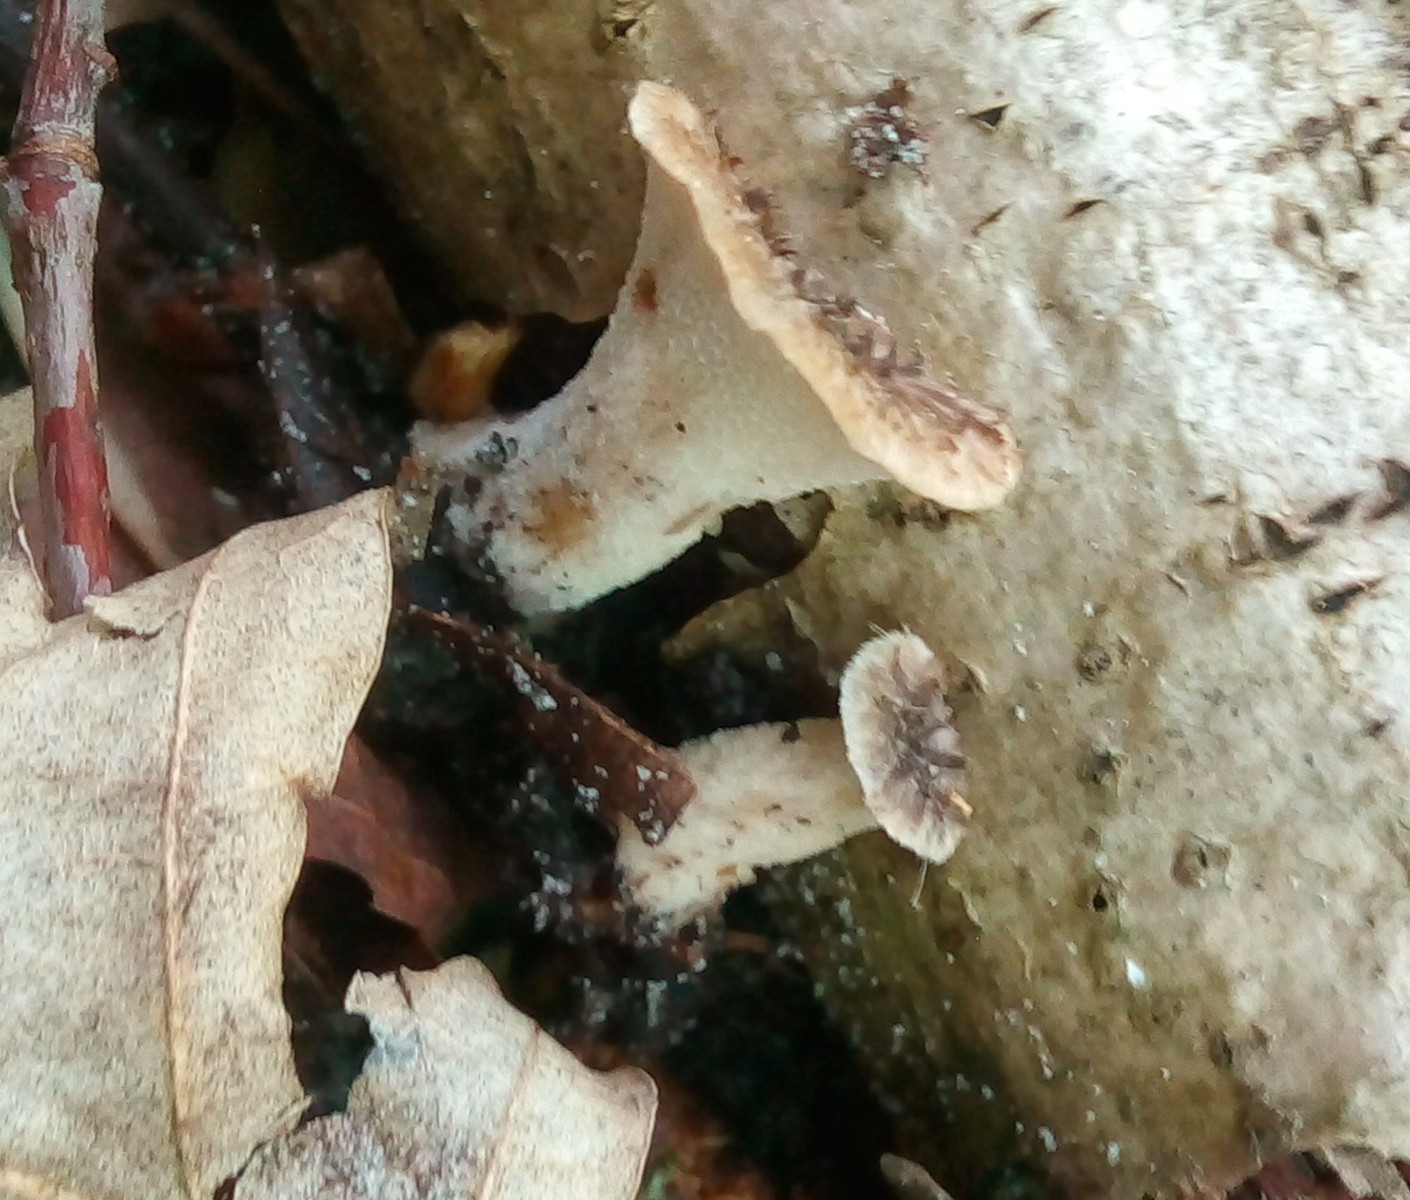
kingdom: Fungi
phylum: Basidiomycota
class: Agaricomycetes
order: Polyporales
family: Polyporaceae
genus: Polyporus
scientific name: Polyporus tuberaster
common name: knoldet stilkporesvamp
